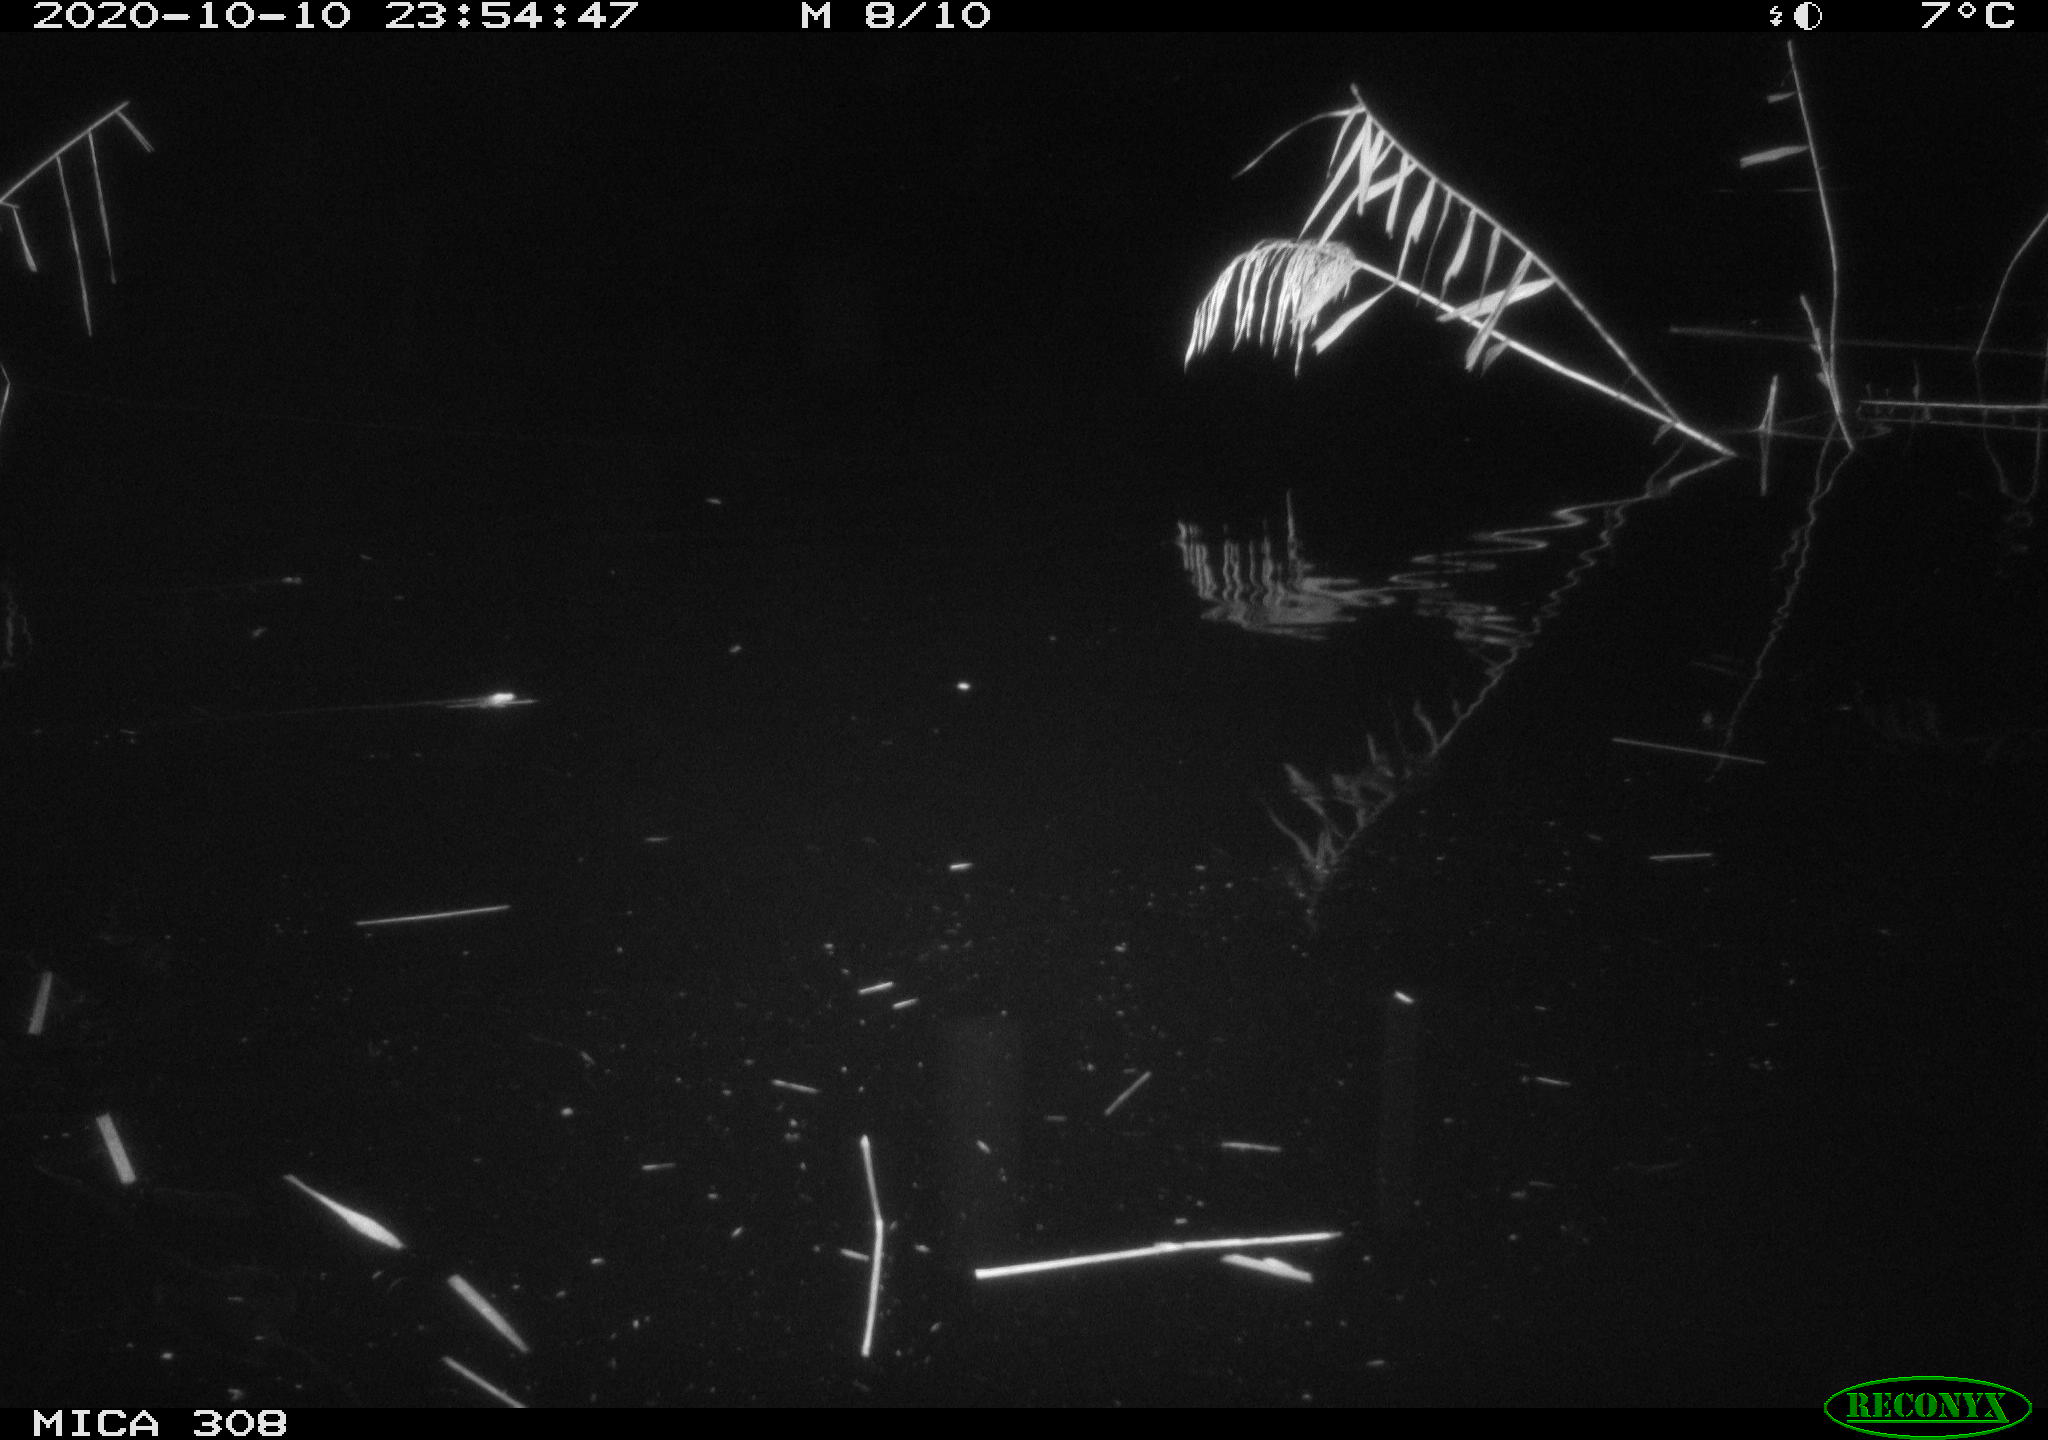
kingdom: Animalia
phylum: Chordata
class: Mammalia
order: Rodentia
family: Muridae
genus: Rattus
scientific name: Rattus norvegicus
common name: Brown rat
